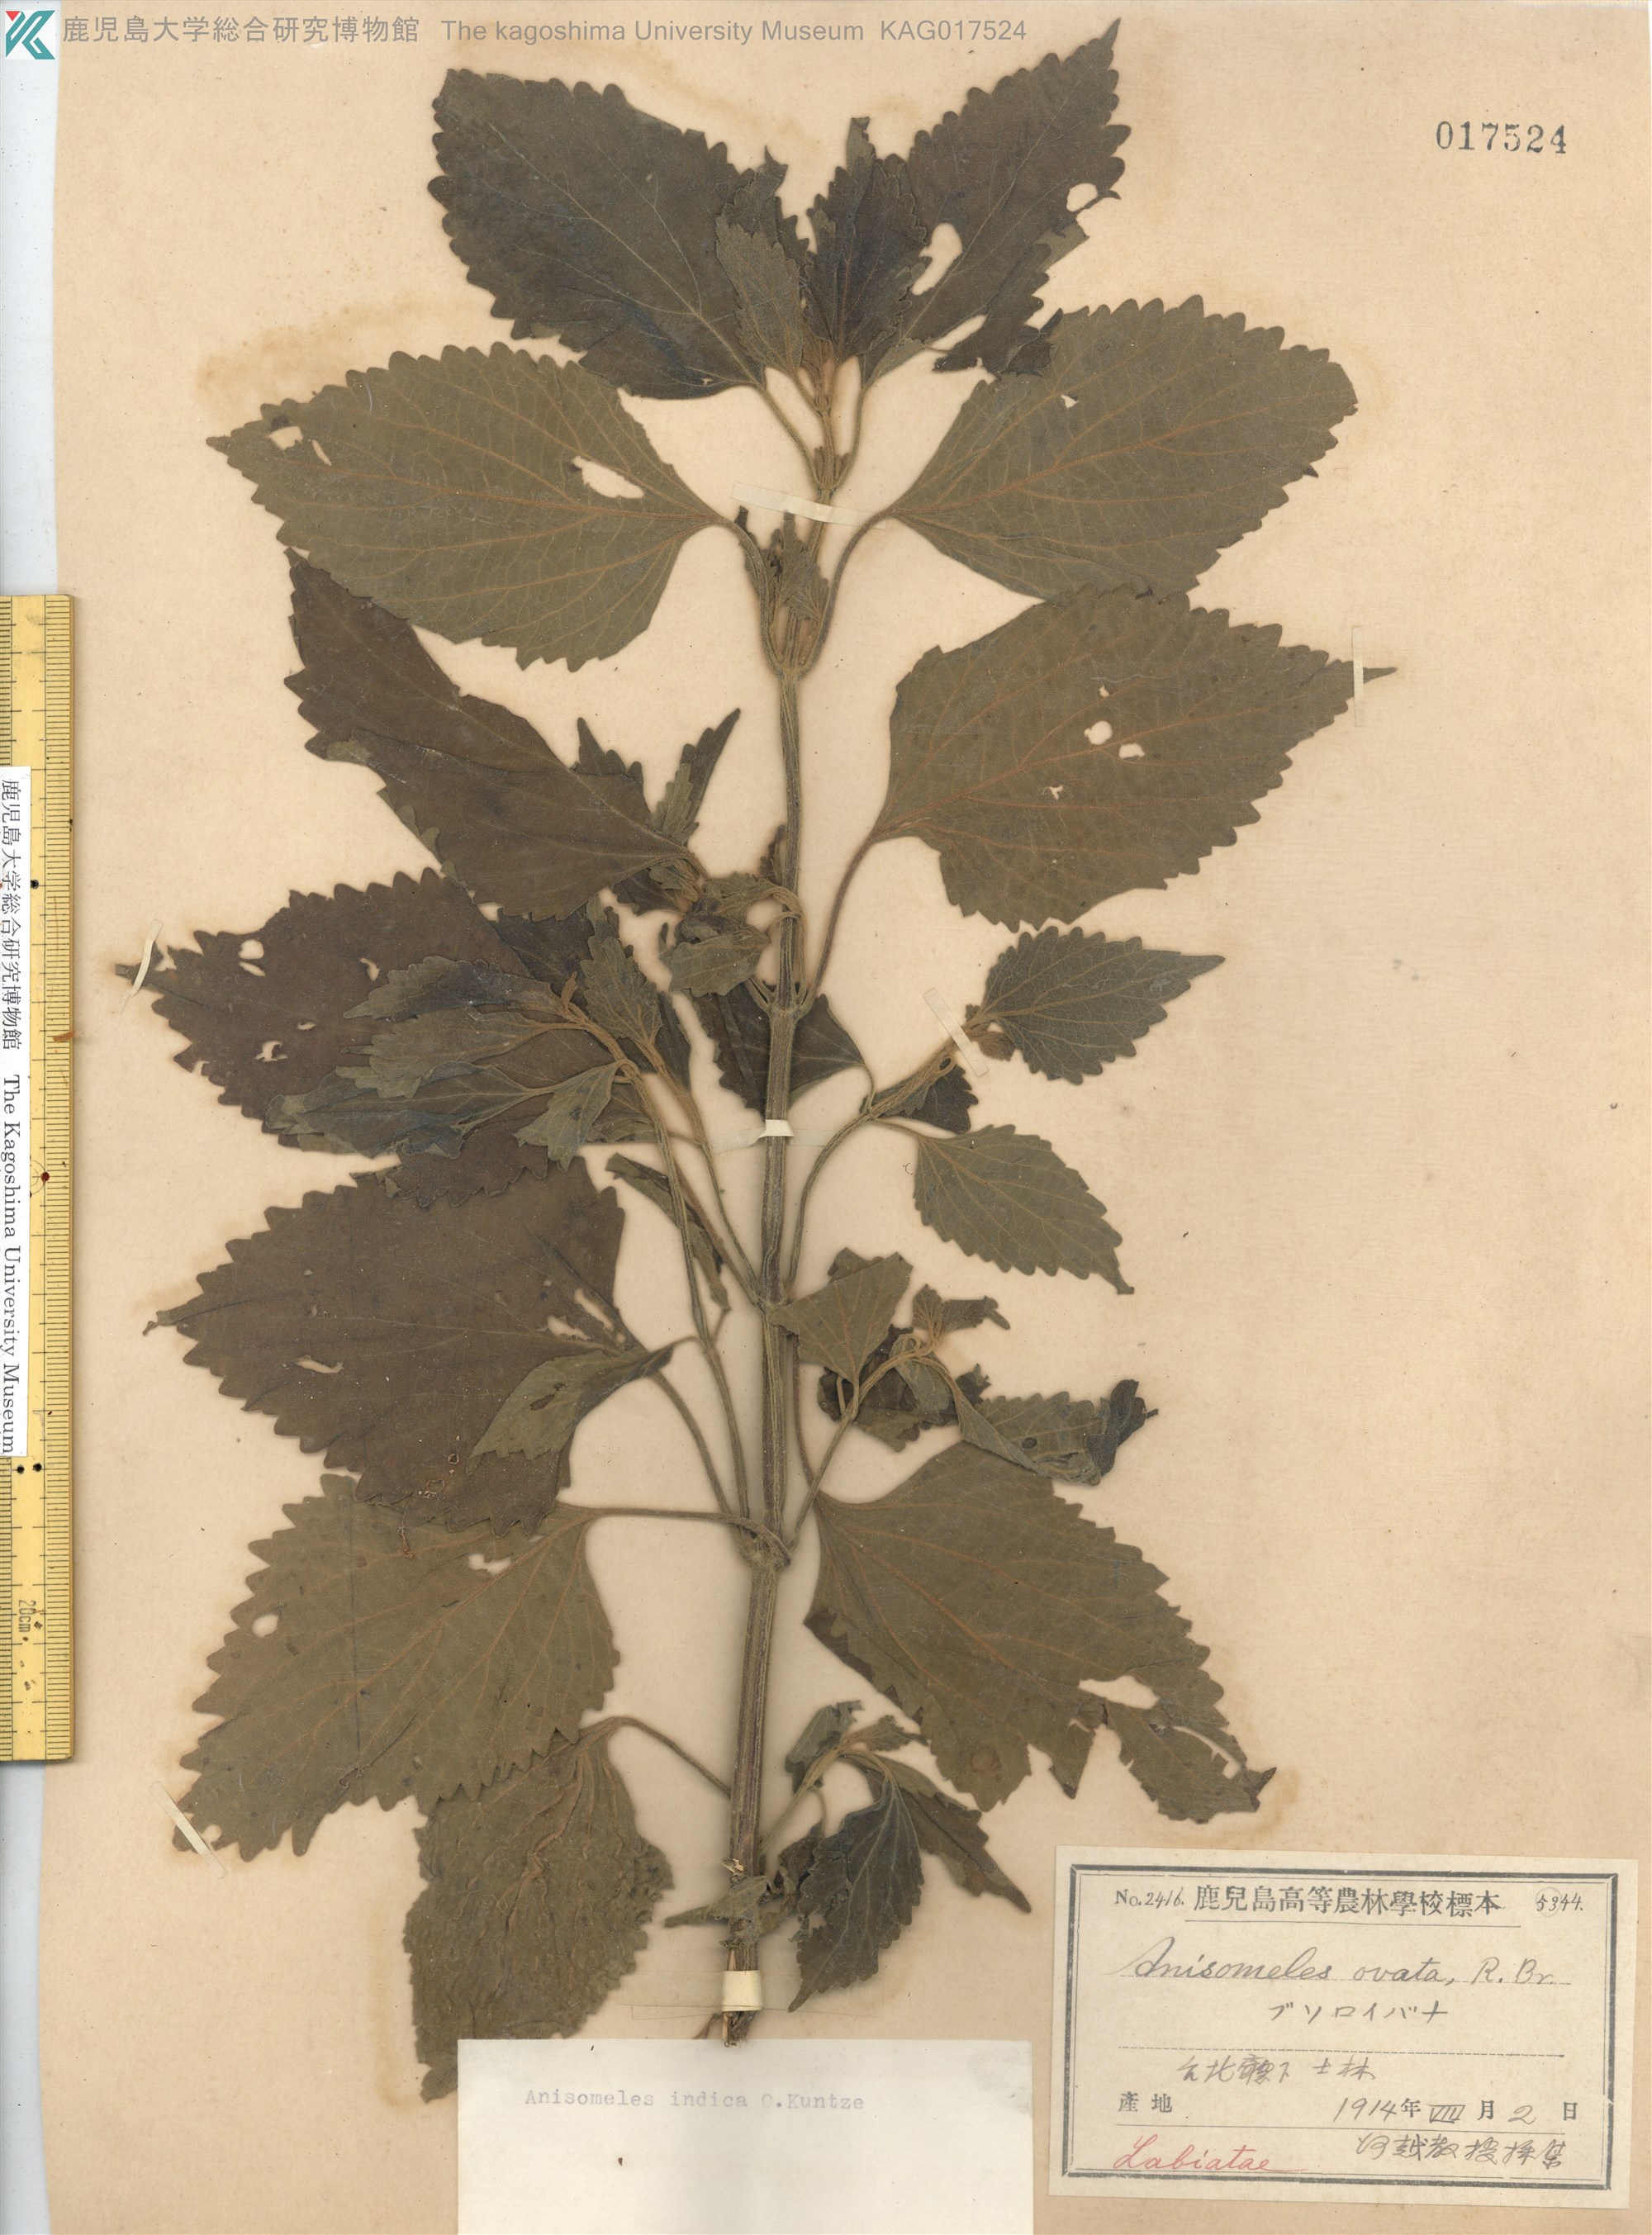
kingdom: Plantae
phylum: Tracheophyta
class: Magnoliopsida
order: Lamiales
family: Lamiaceae
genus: Anisomeles
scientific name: Anisomeles indica
